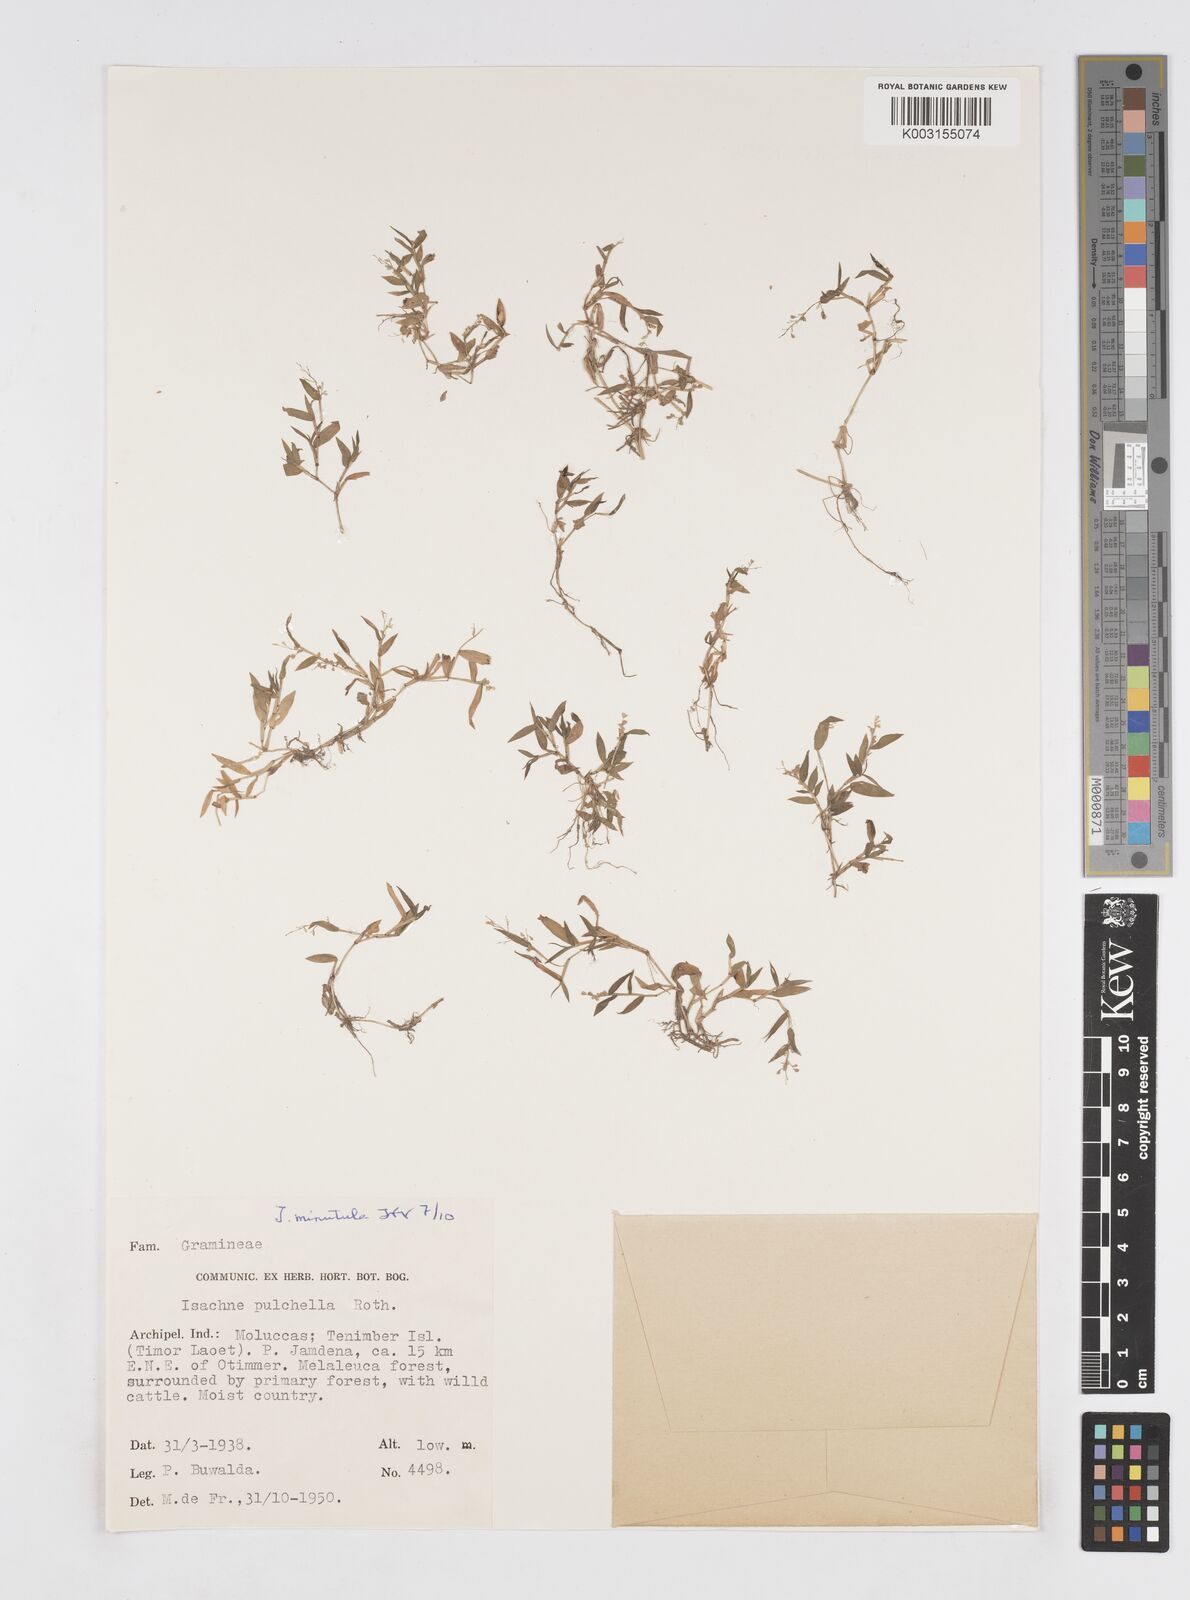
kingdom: Plantae
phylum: Tracheophyta
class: Liliopsida
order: Poales
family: Poaceae
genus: Isachne
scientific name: Isachne pulchella
